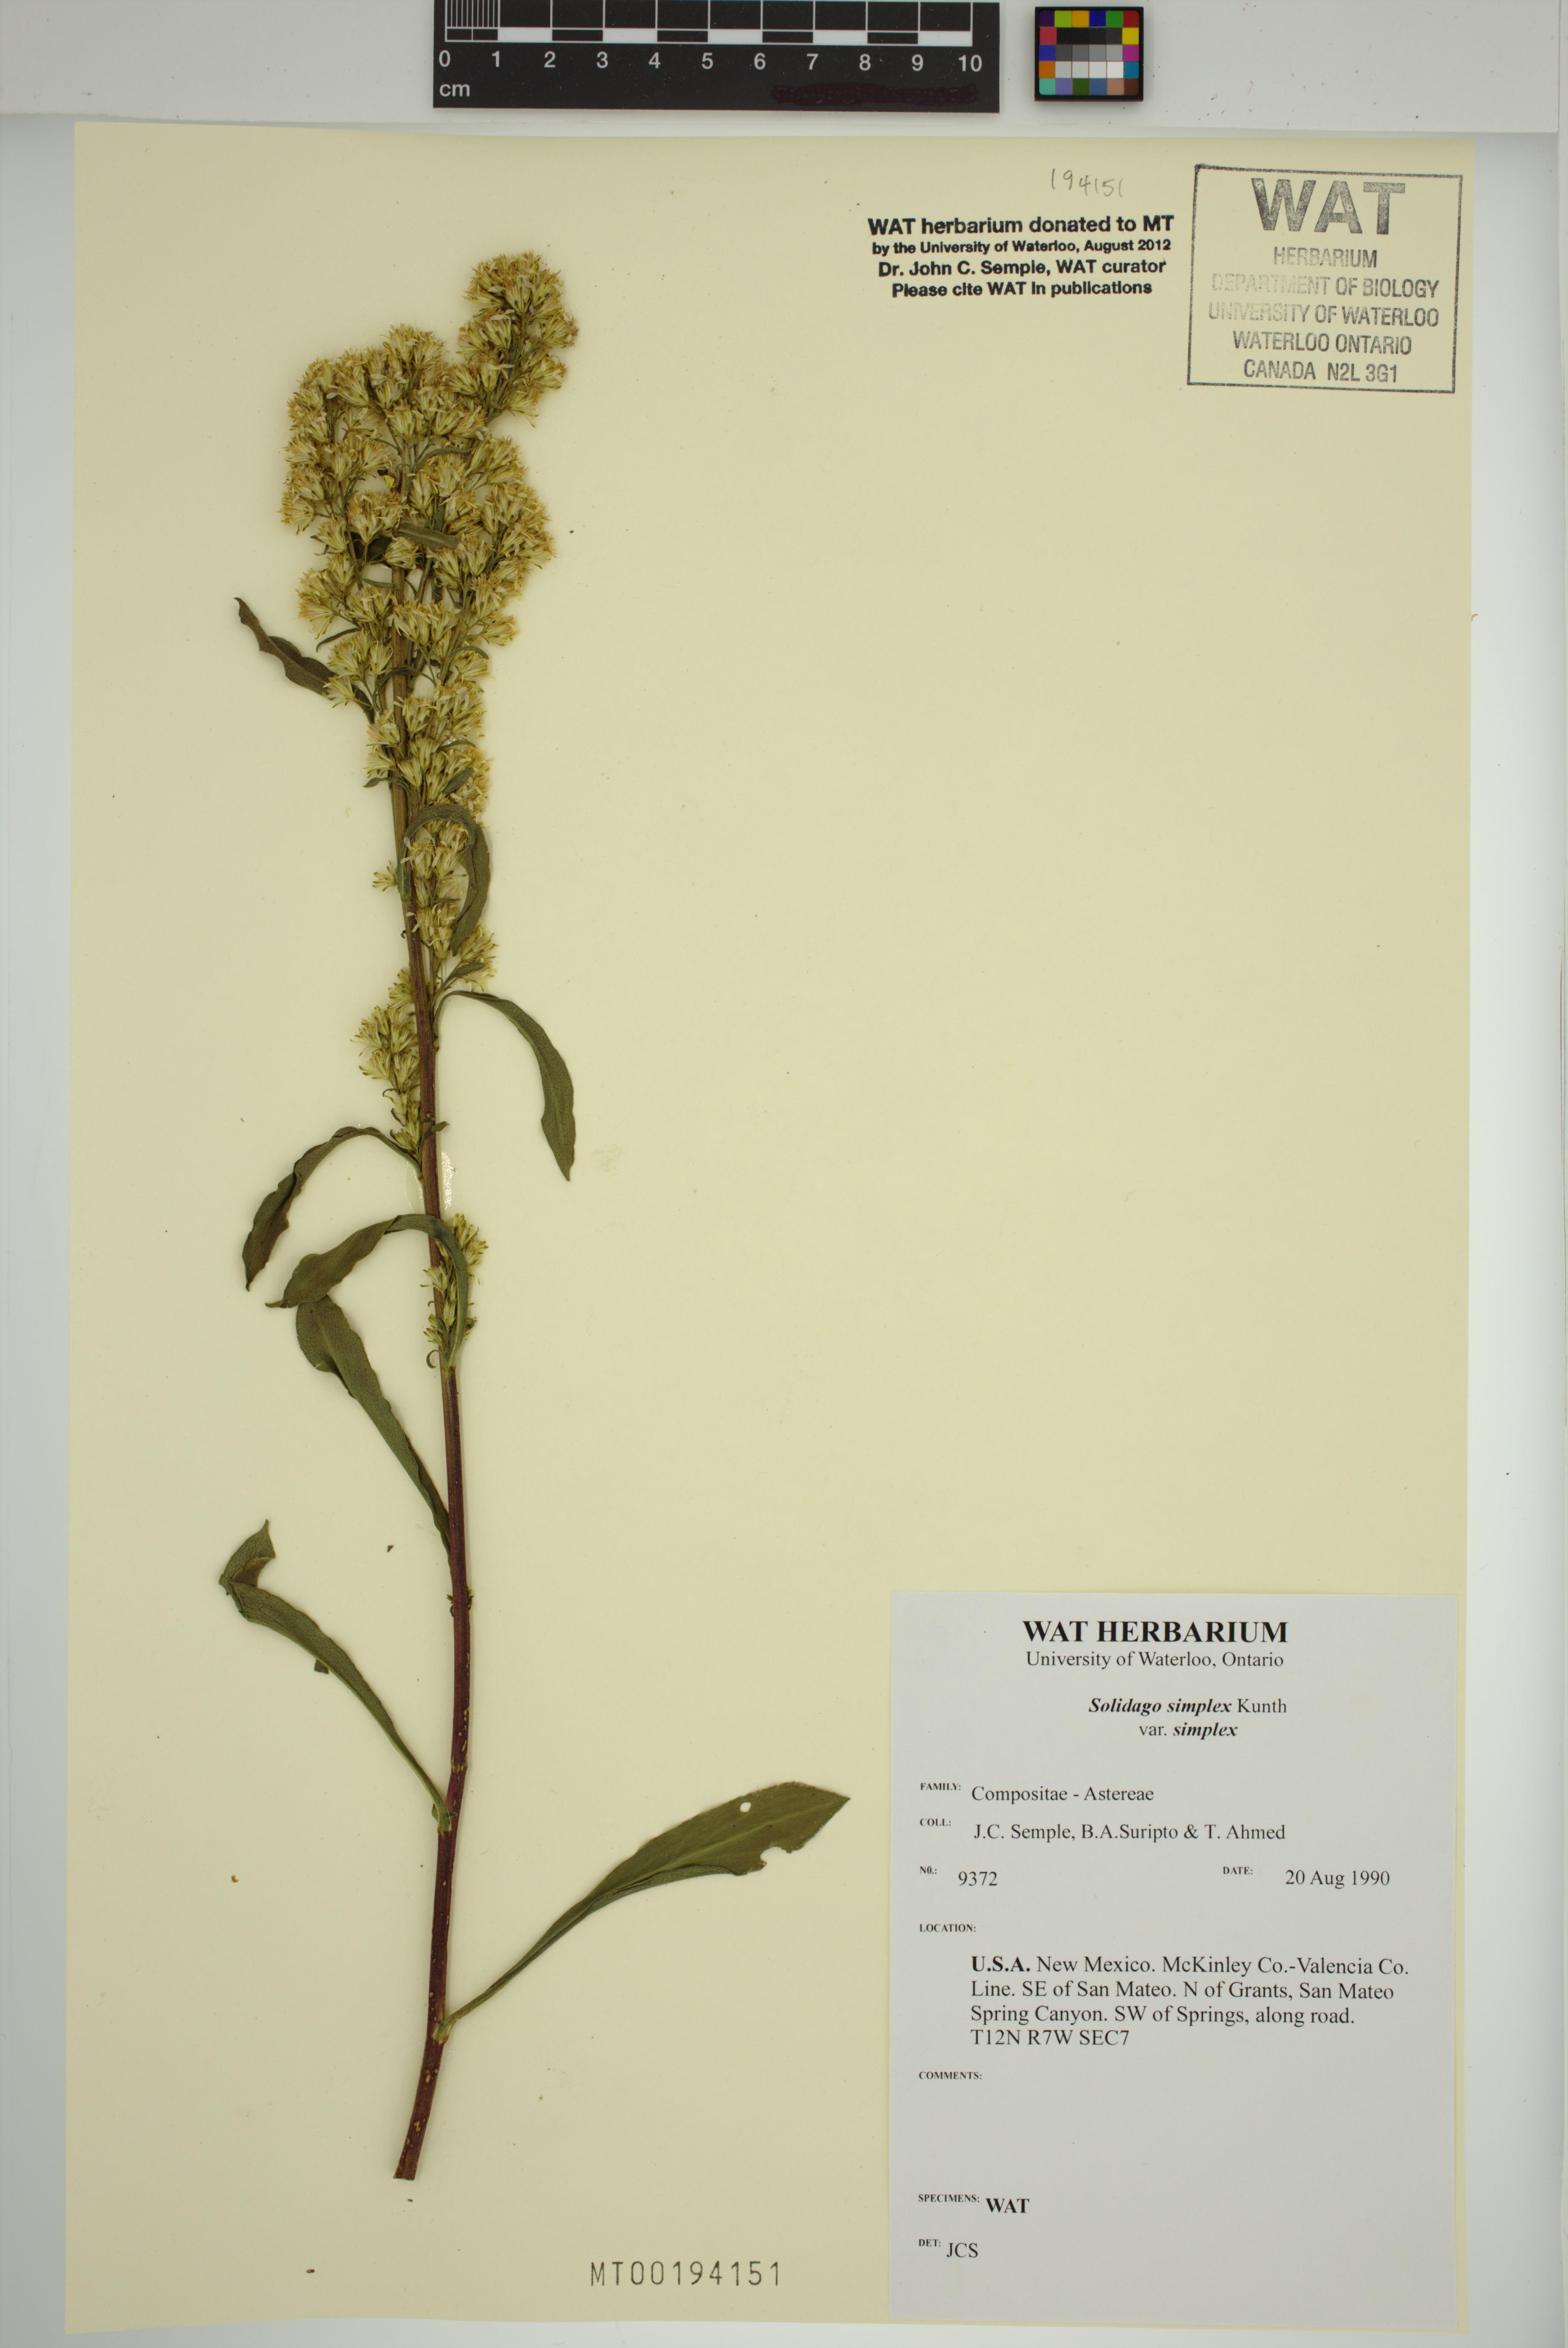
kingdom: Plantae
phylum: Tracheophyta
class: Magnoliopsida
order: Asterales
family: Asteraceae
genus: Solidago
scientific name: Solidago glutinosa
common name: Decumbent goldenrod
